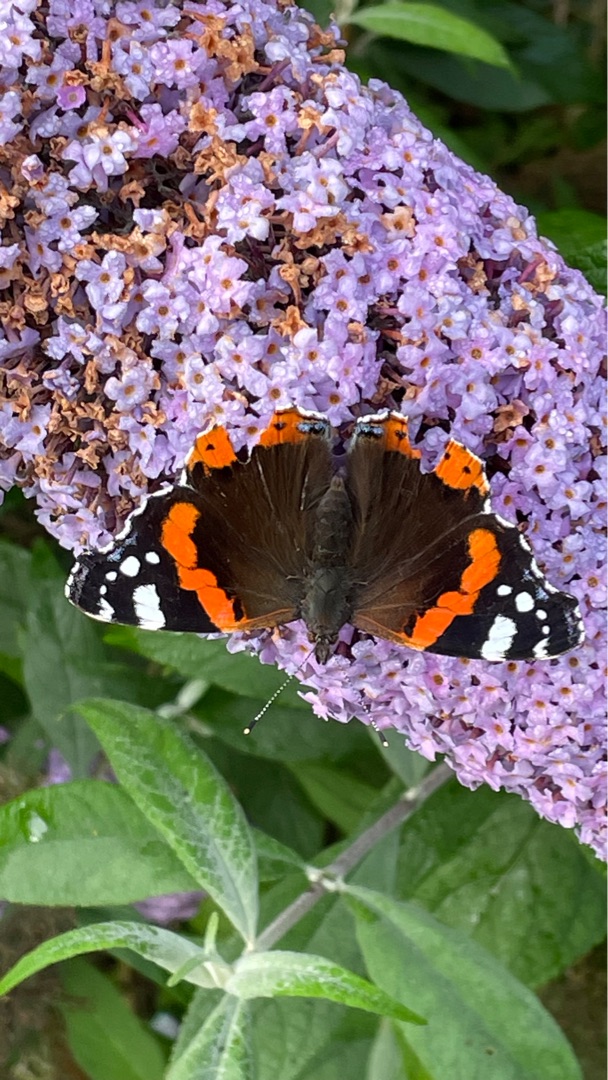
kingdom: Animalia
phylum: Arthropoda
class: Insecta
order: Lepidoptera
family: Nymphalidae
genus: Vanessa
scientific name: Vanessa atalanta
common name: Admiral
